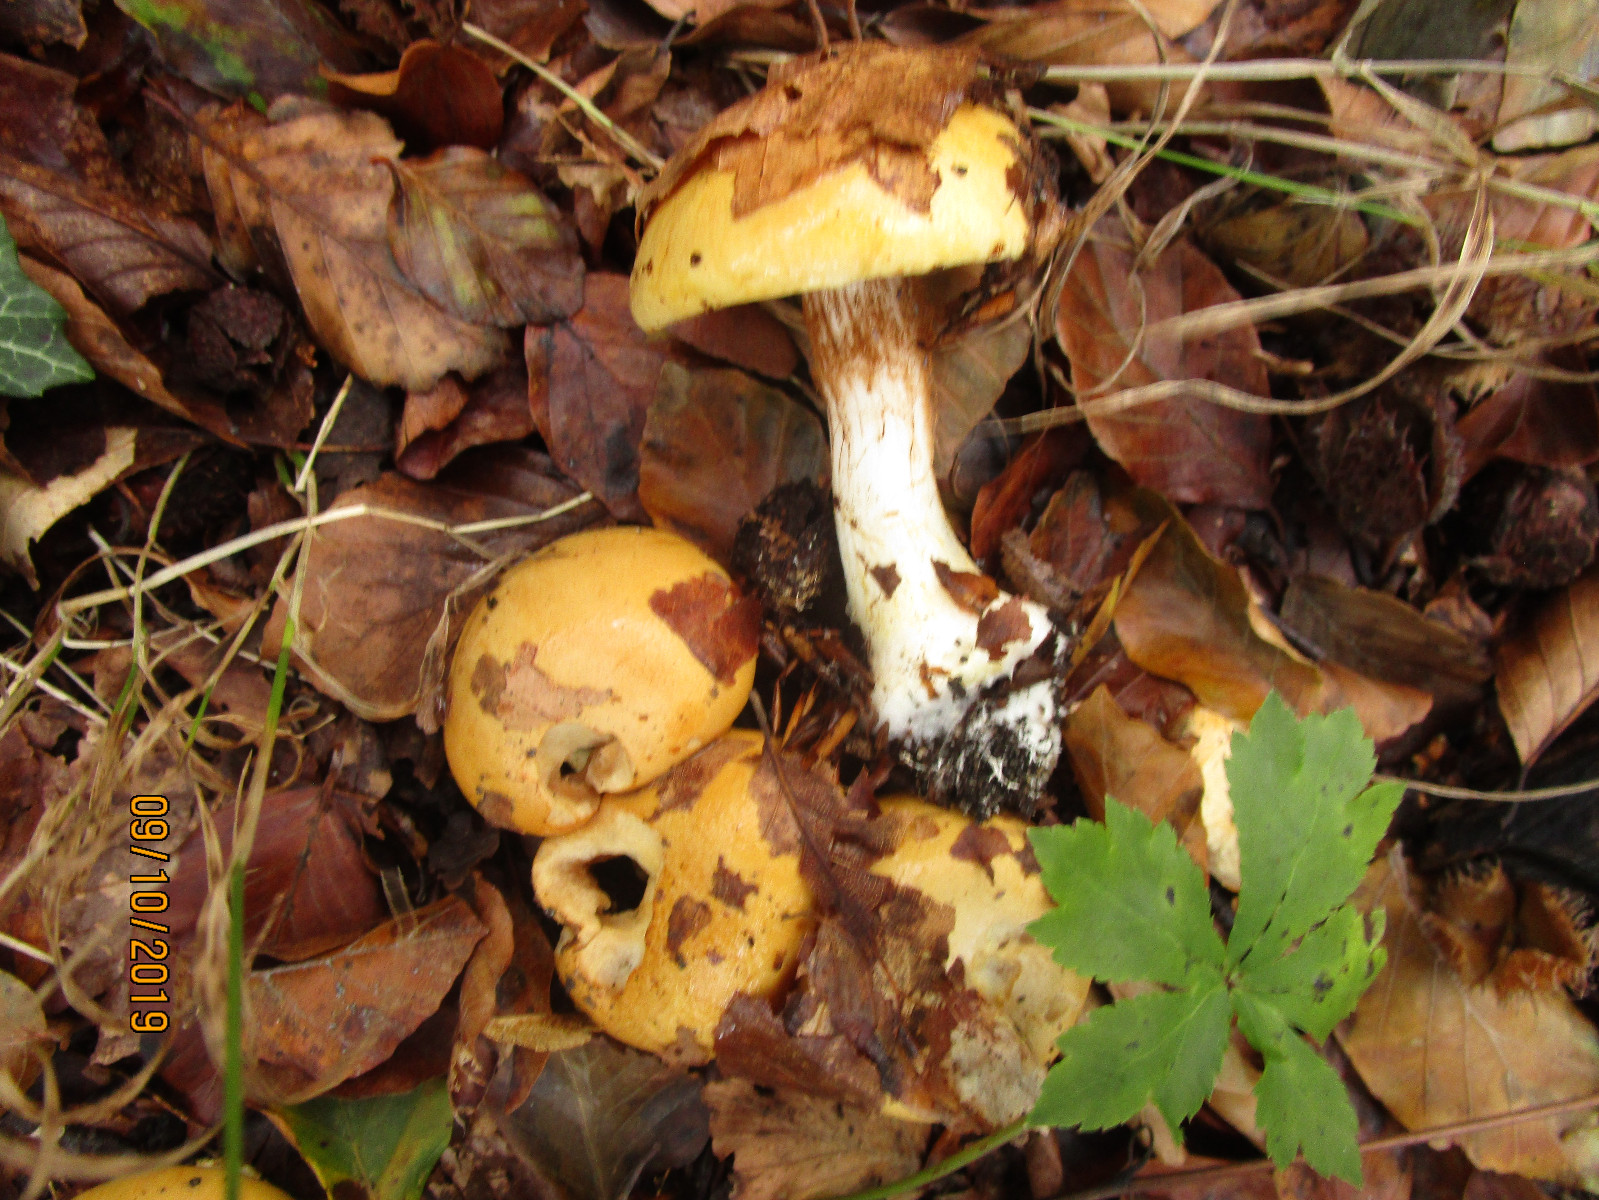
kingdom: Fungi
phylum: Basidiomycota
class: Agaricomycetes
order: Agaricales
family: Cortinariaceae
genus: Phlegmacium
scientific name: Phlegmacium rhizophorum
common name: finkornet slørhat
